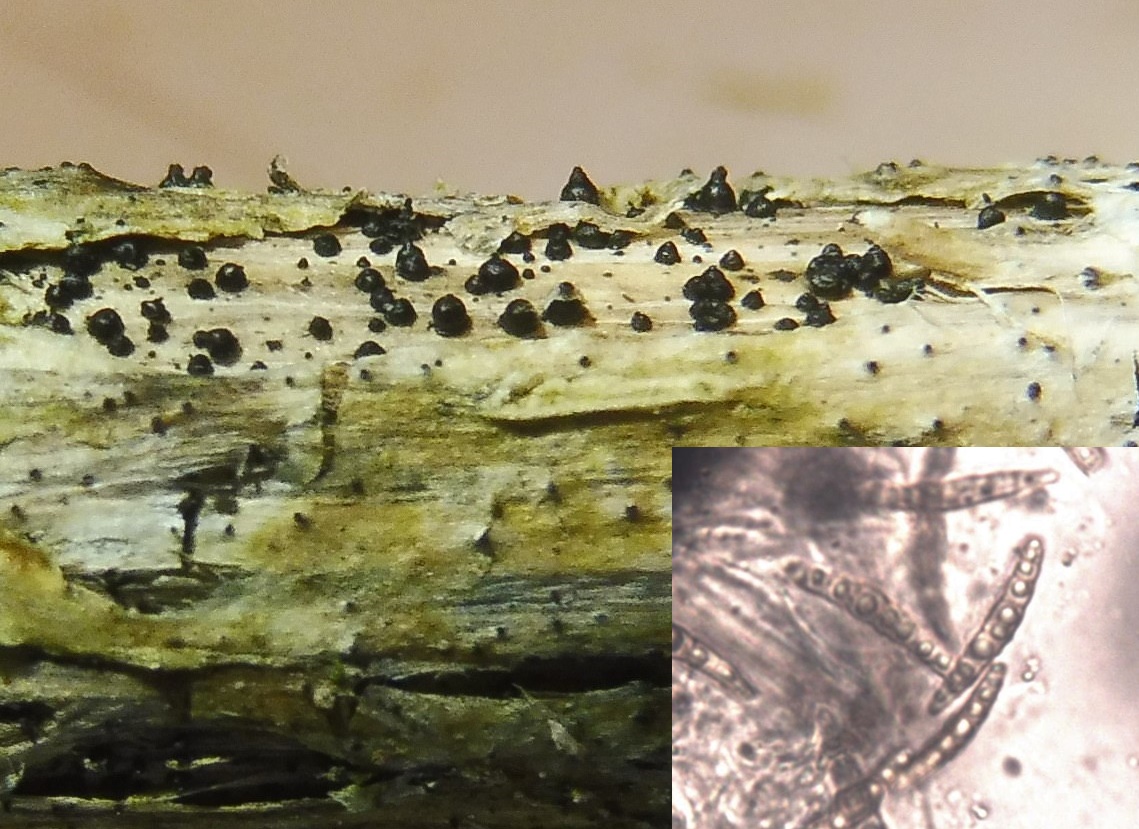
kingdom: Fungi
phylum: Ascomycota
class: Dothideomycetes
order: Pleosporales
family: Leptosphaeriaceae
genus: Leptosphaeria
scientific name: Leptosphaeria acuta
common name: spids kulkegle
